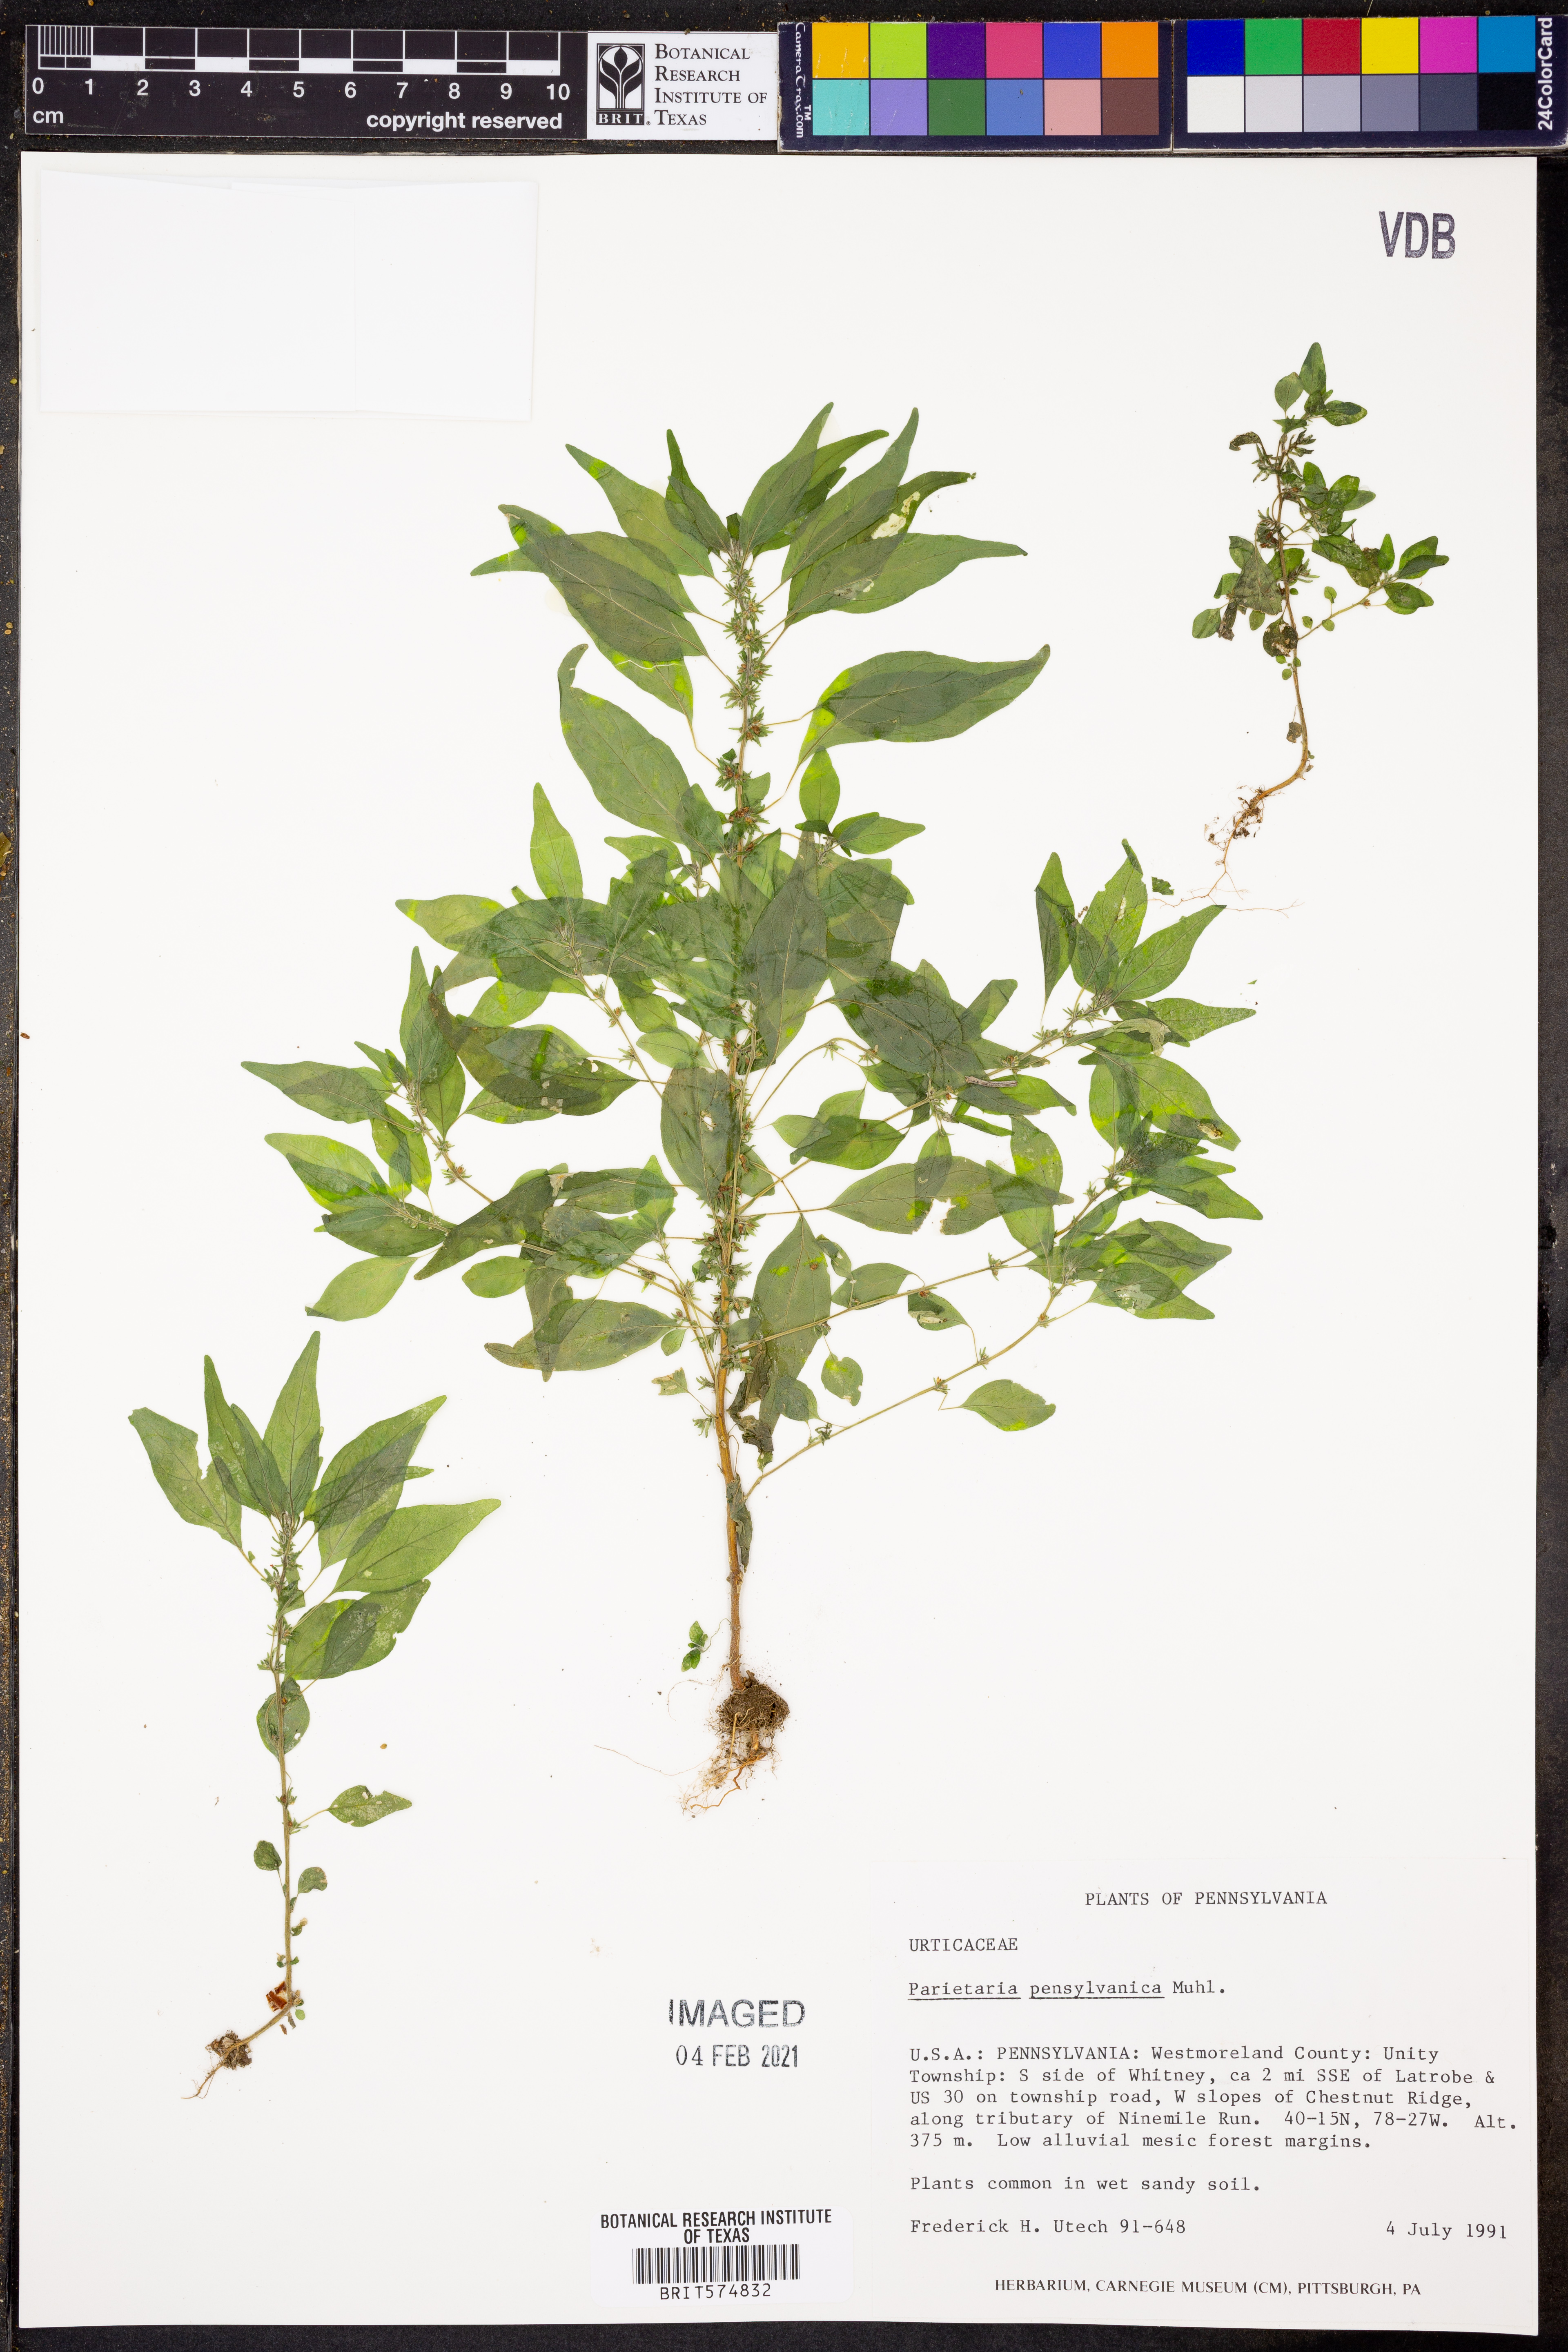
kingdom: Plantae
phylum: Tracheophyta
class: Magnoliopsida
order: Rosales
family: Urticaceae
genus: Parietaria
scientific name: Parietaria pensylvanica
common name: Pennsylvania pellitory
